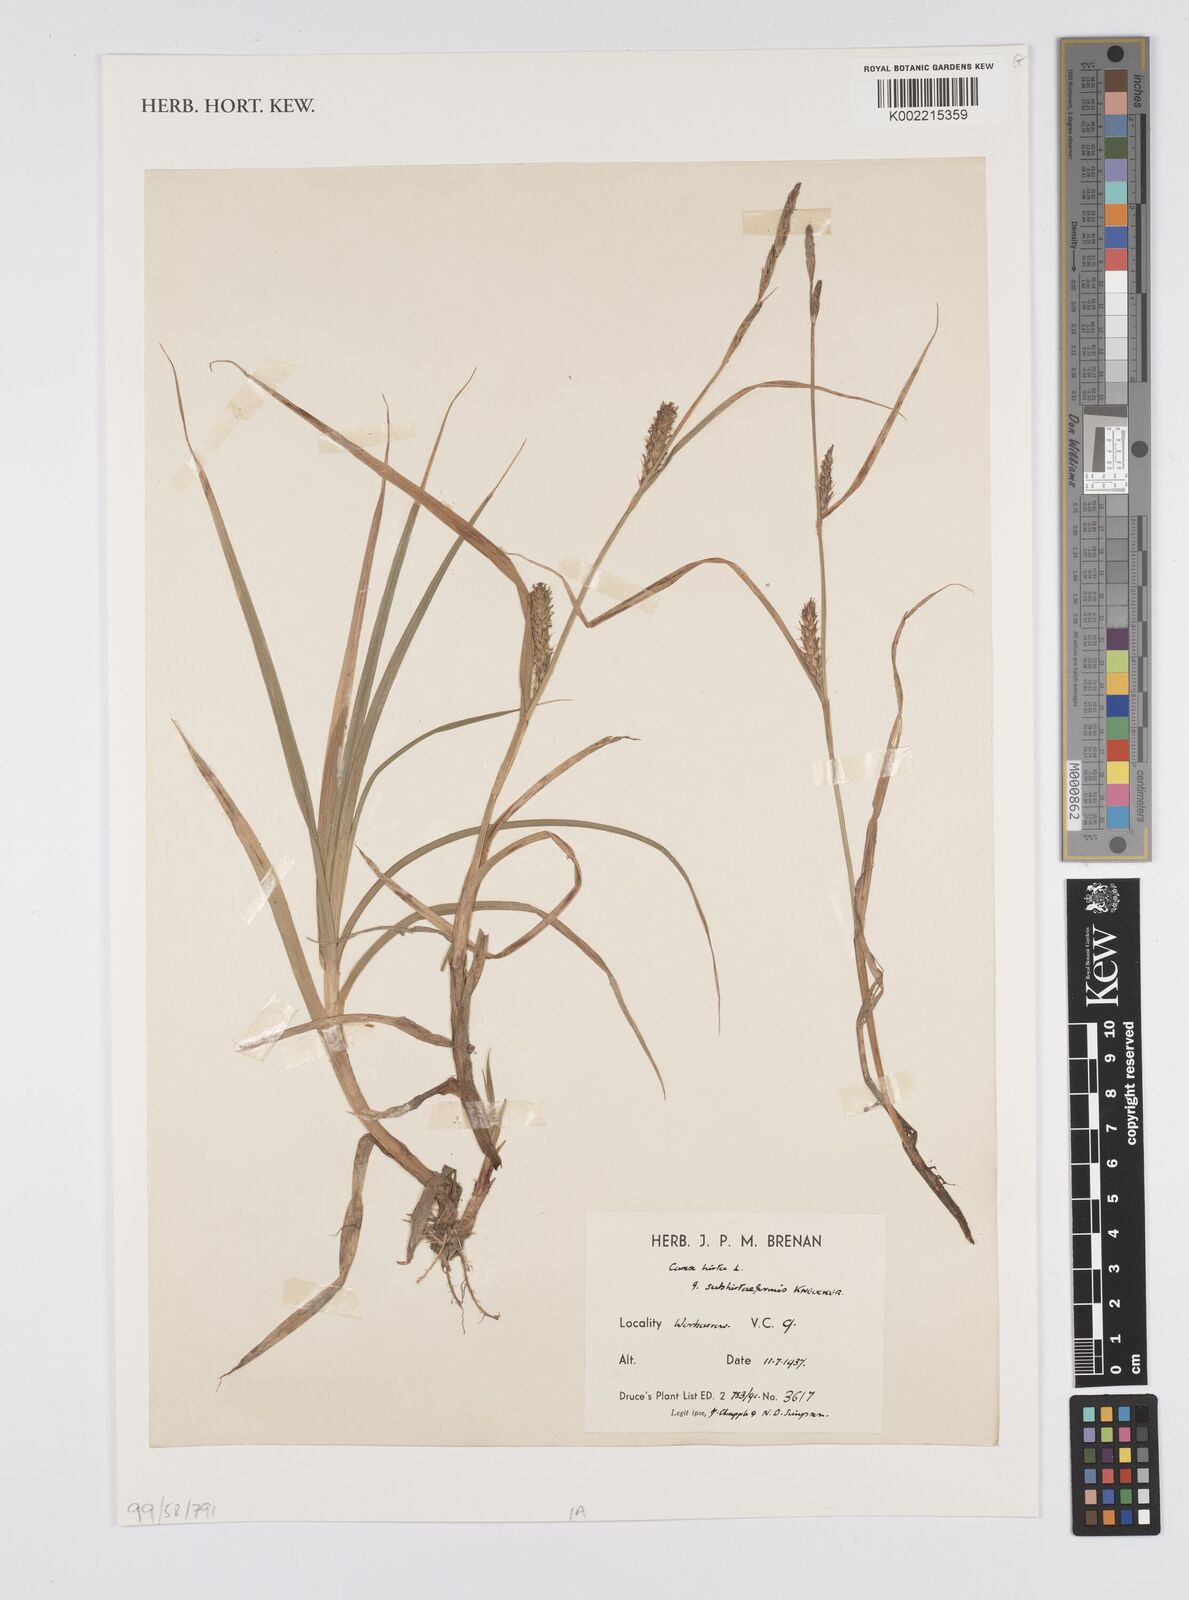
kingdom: Plantae
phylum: Tracheophyta
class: Liliopsida
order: Poales
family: Cyperaceae
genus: Carex
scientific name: Carex hirta
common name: Hairy sedge
